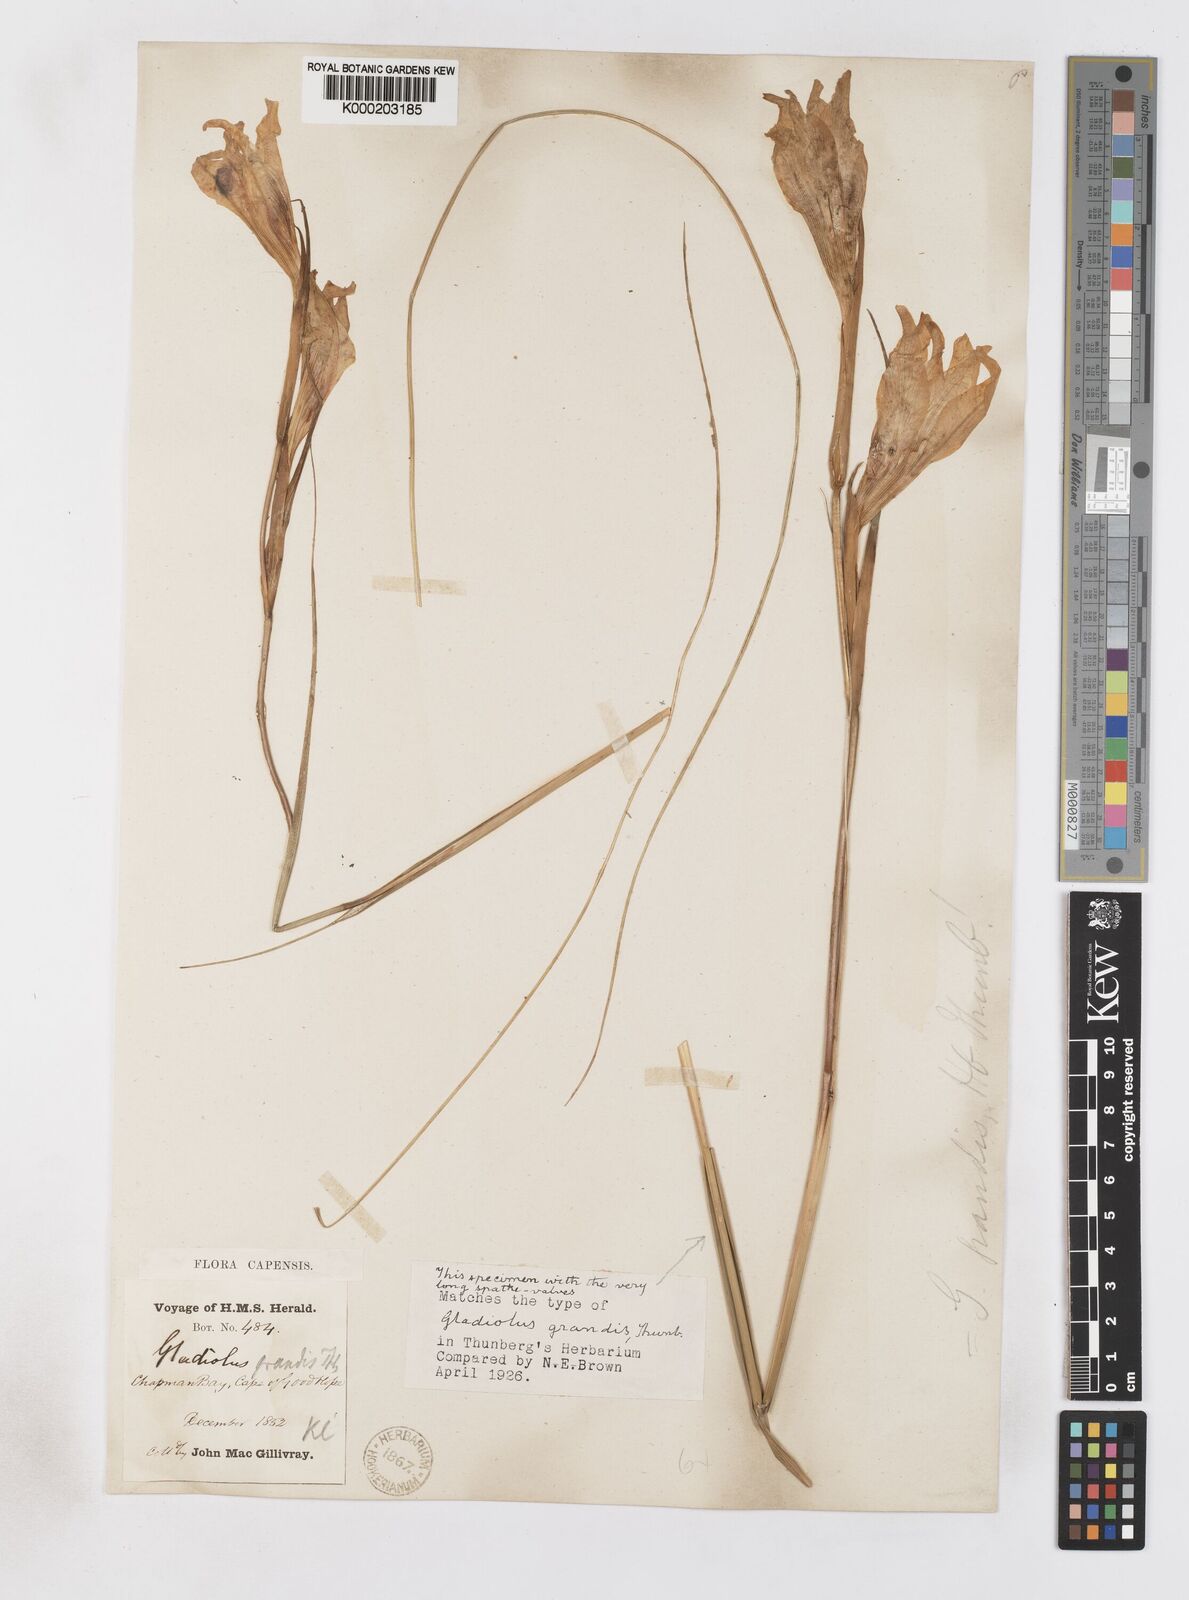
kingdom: Plantae
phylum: Tracheophyta
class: Liliopsida
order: Asparagales
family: Iridaceae
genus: Gladiolus
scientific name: Gladiolus liliaceus
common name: Large brown afrikaner
